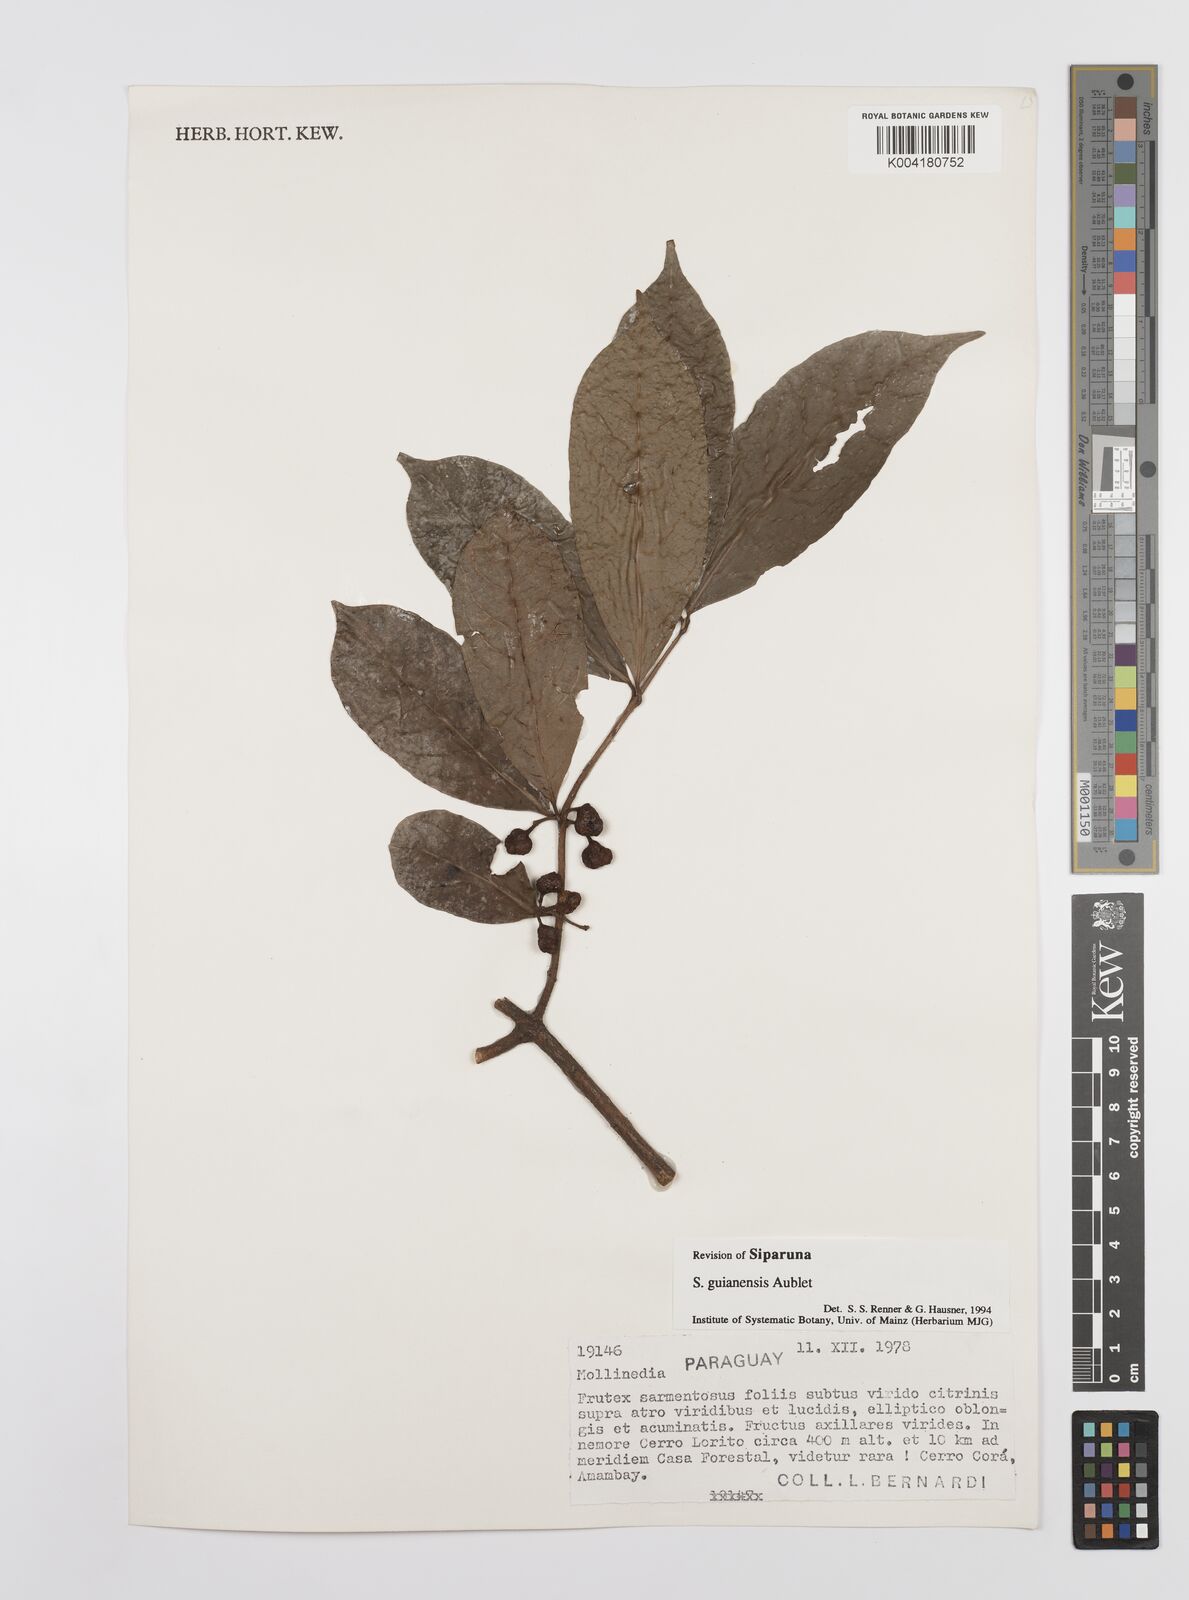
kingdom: Plantae
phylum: Tracheophyta
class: Magnoliopsida
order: Laurales
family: Siparunaceae
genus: Siparuna
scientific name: Siparuna guianensis
